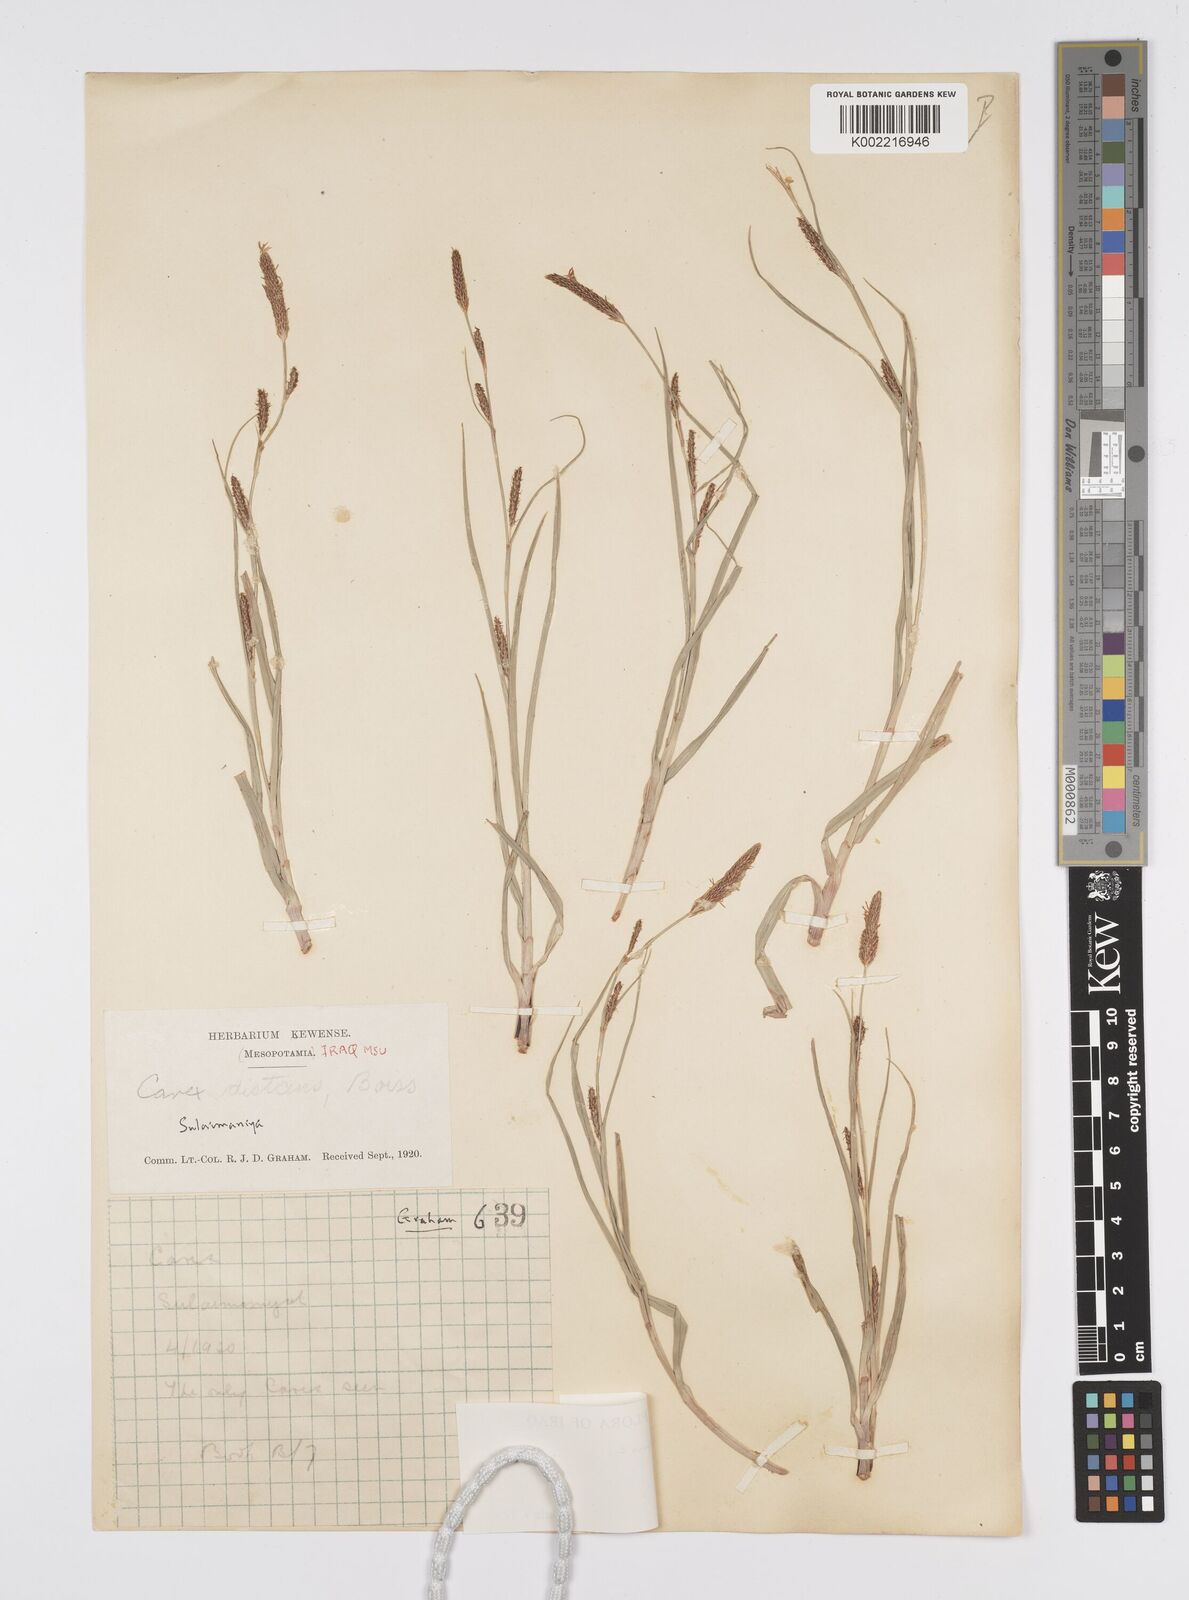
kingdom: Plantae
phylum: Tracheophyta
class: Liliopsida
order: Poales
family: Cyperaceae
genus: Carex
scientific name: Carex distans
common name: Distant sedge
